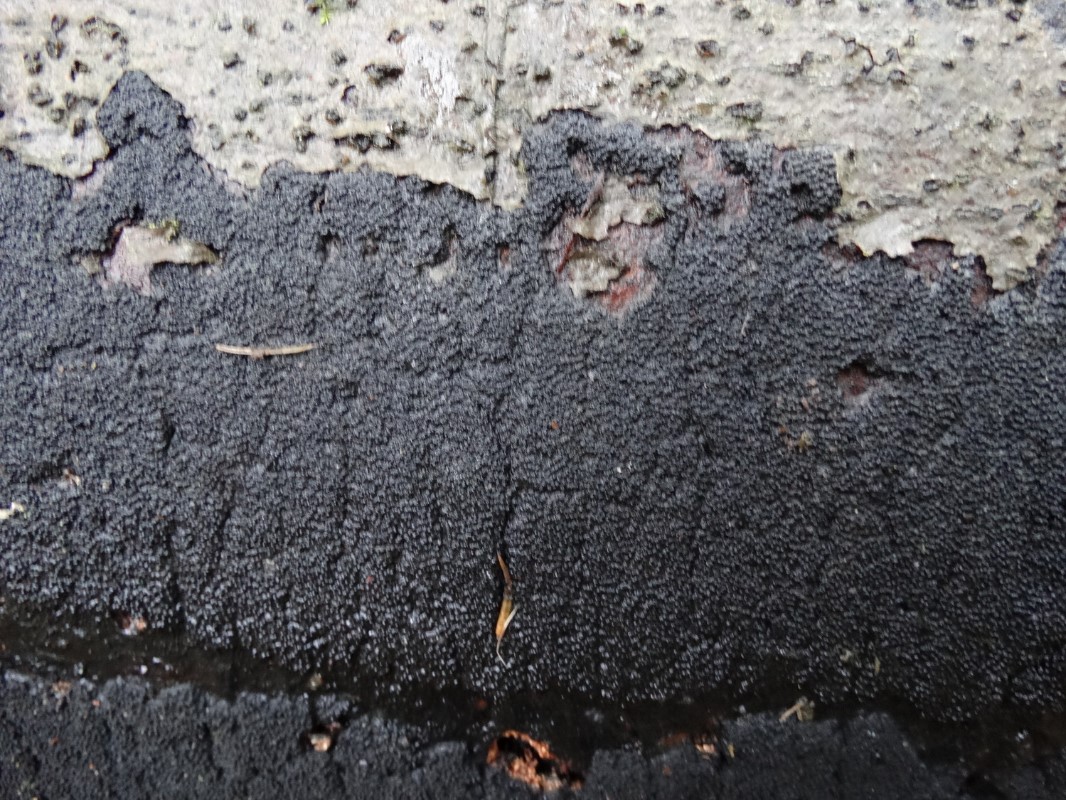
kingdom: Fungi
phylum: Ascomycota
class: Sordariomycetes
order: Xylariales
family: Diatrypaceae
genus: Eutypa
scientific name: Eutypa spinosa
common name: grov kulskorpe
